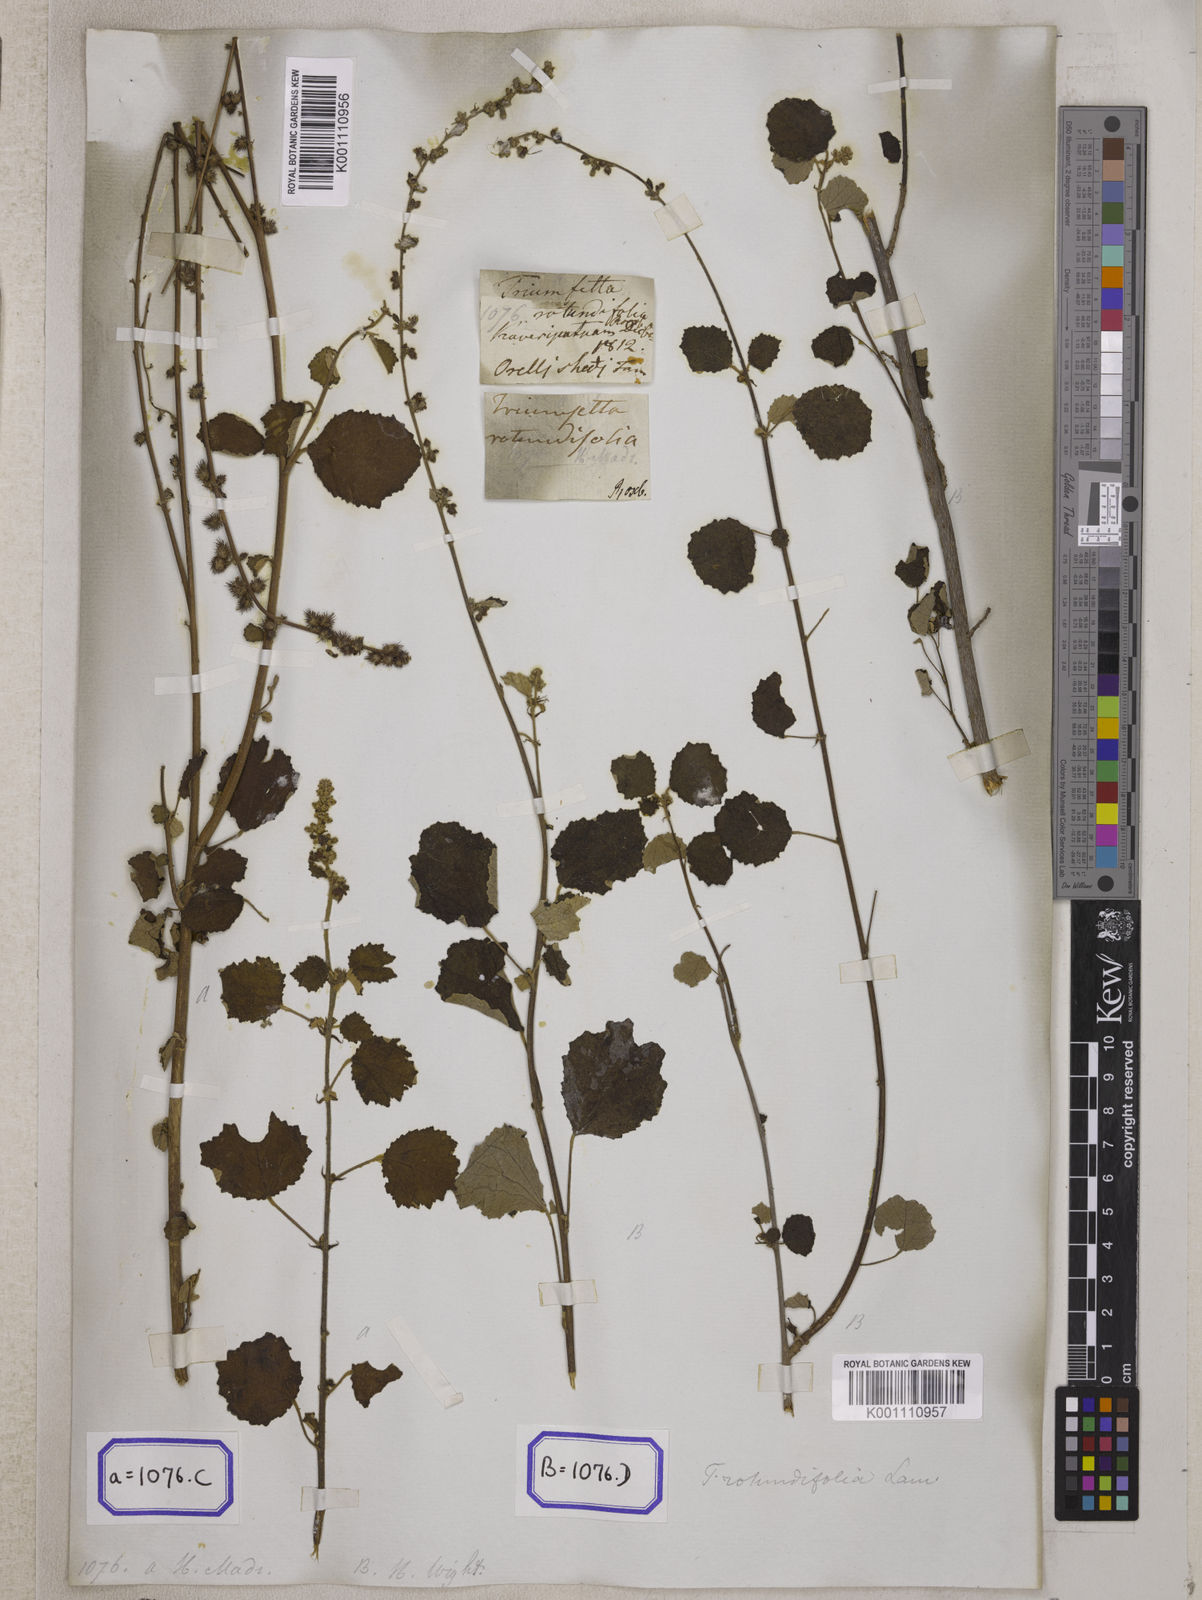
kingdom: Plantae
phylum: Tracheophyta
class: Magnoliopsida
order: Malvales
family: Malvaceae
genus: Triumfetta
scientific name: Triumfetta pilosa
